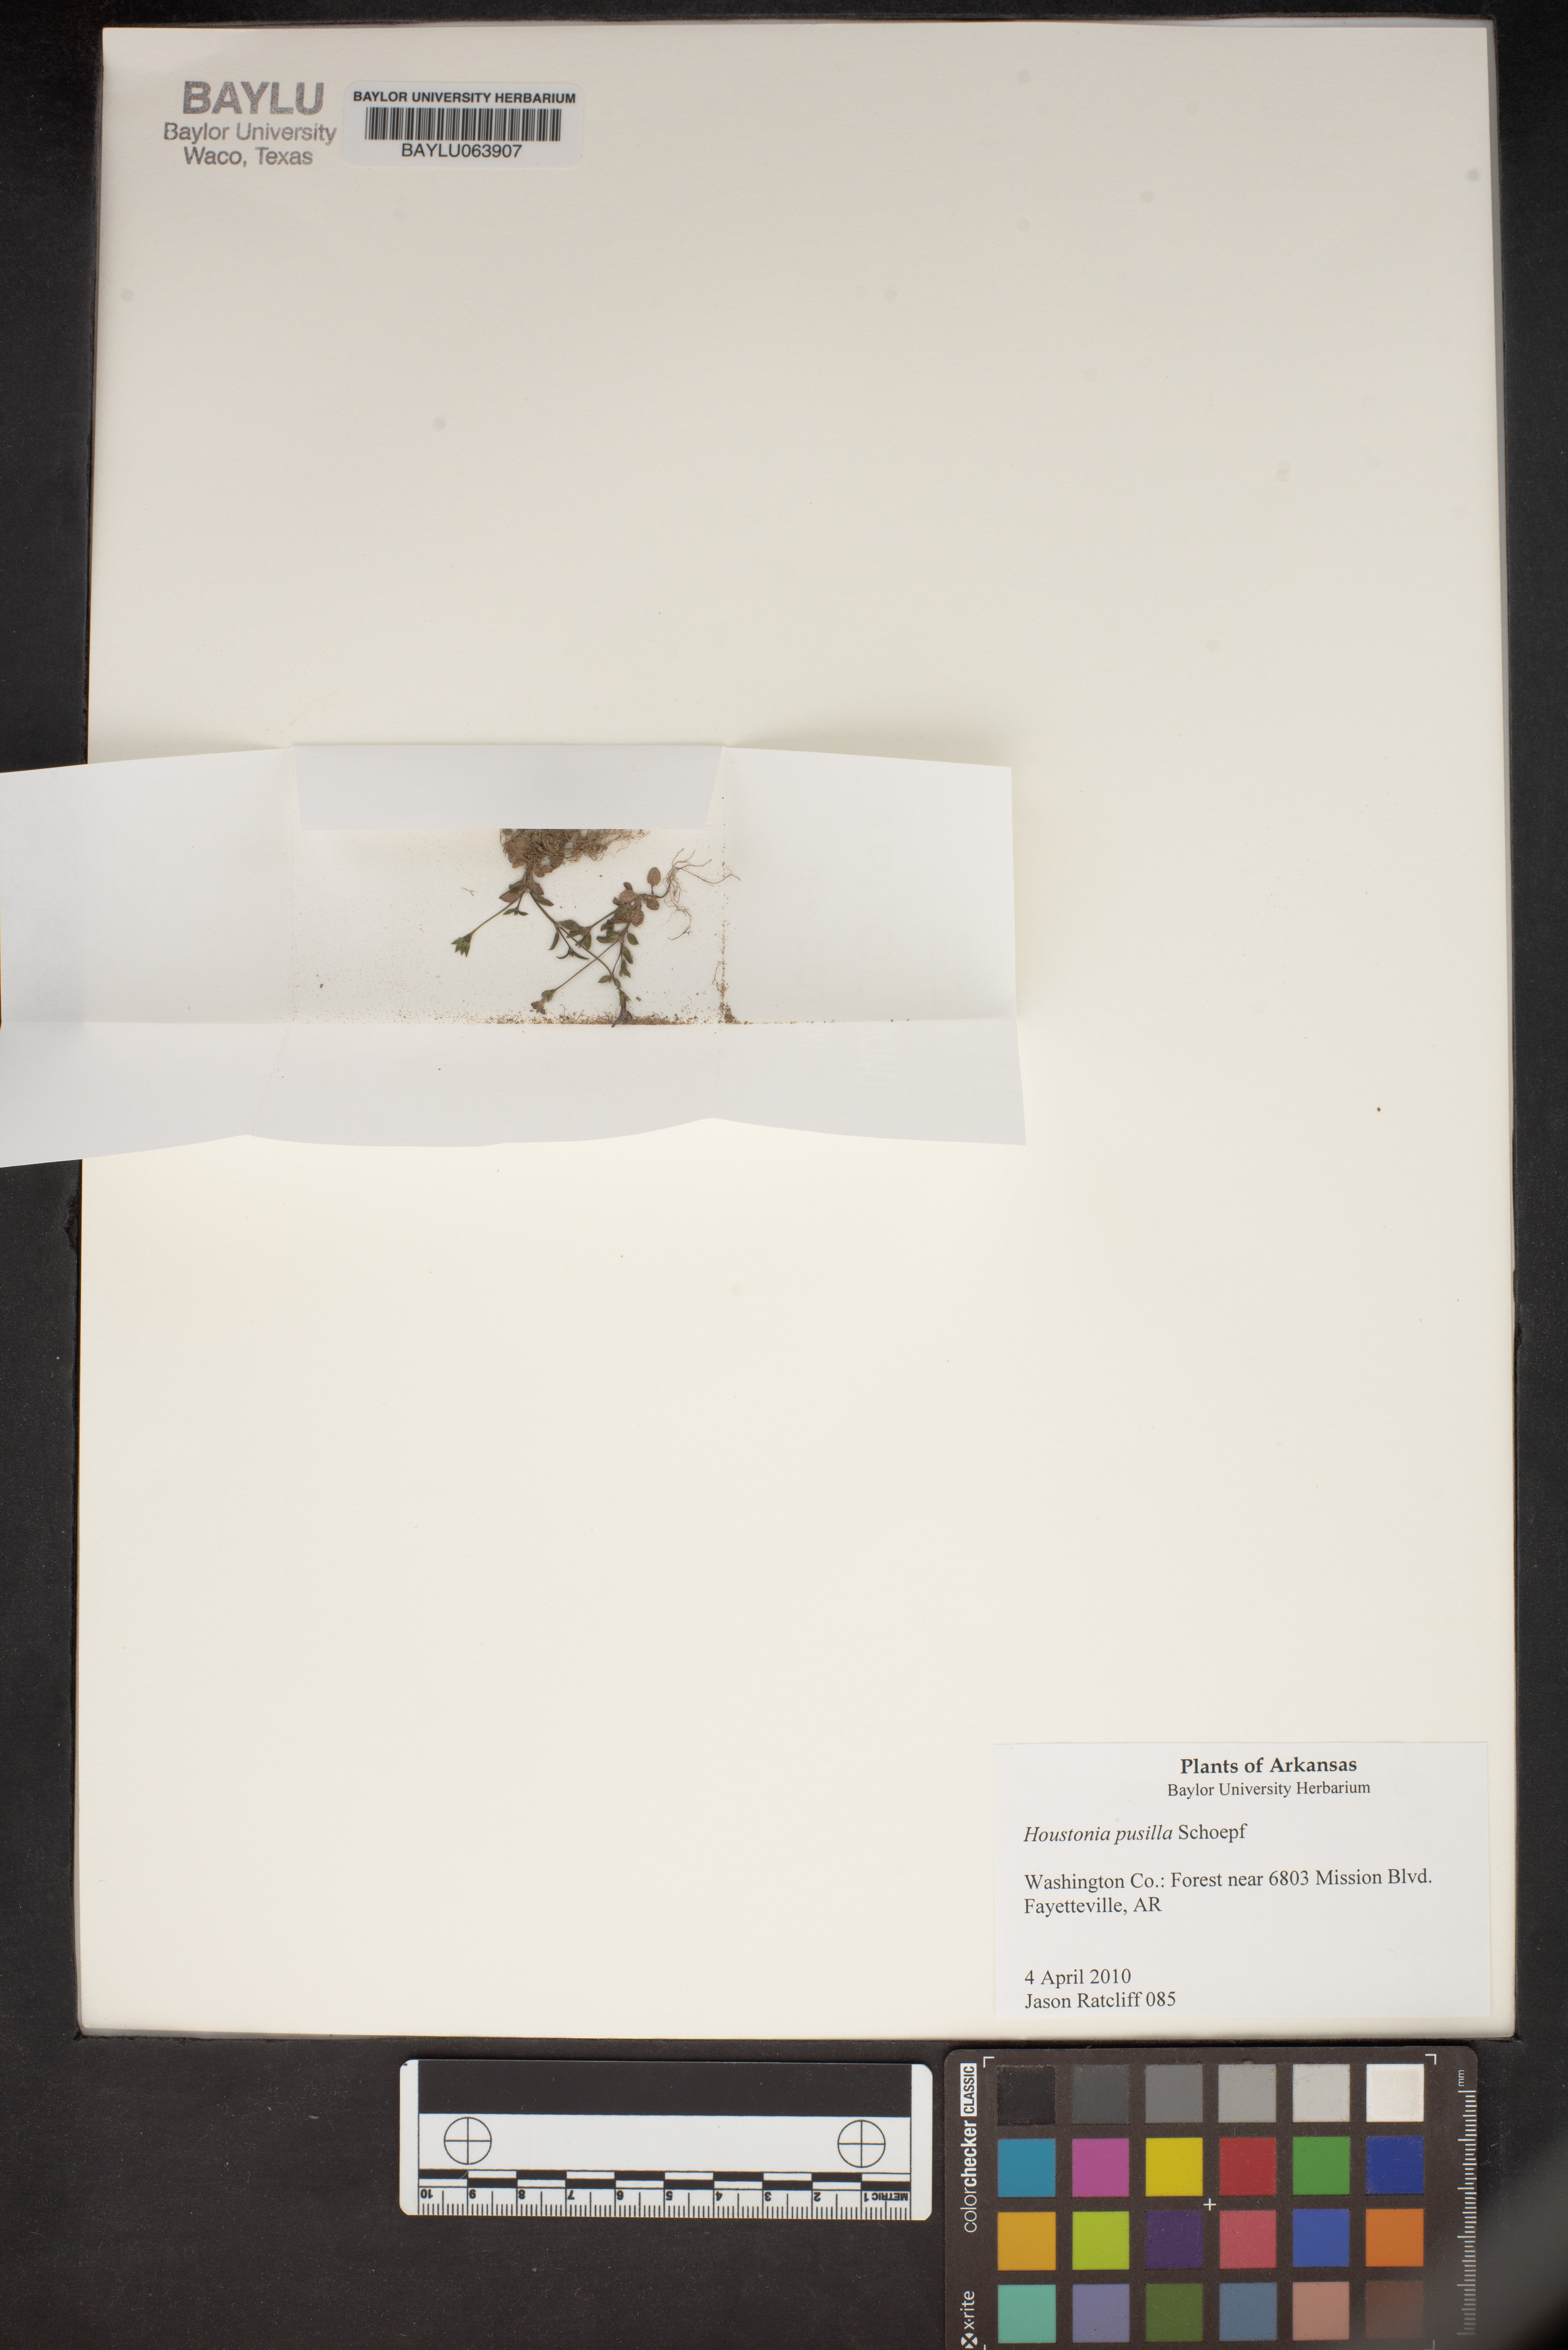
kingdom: Plantae
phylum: Tracheophyta
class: Magnoliopsida
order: Gentianales
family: Rubiaceae
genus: Houstonia
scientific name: Houstonia pusilla
